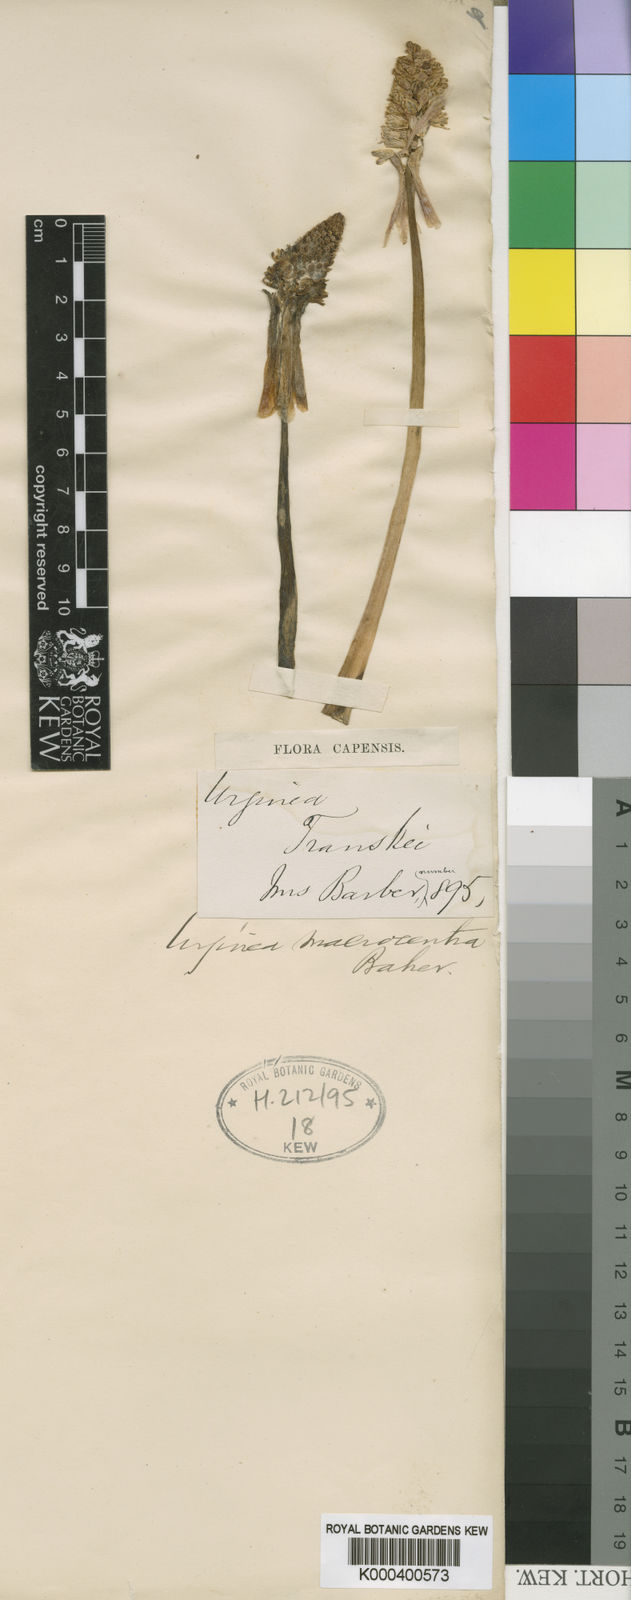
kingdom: Plantae
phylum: Tracheophyta
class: Liliopsida
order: Asparagales
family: Asparagaceae
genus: Drimia
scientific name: Drimia macrocentra
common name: Natal slangkop
